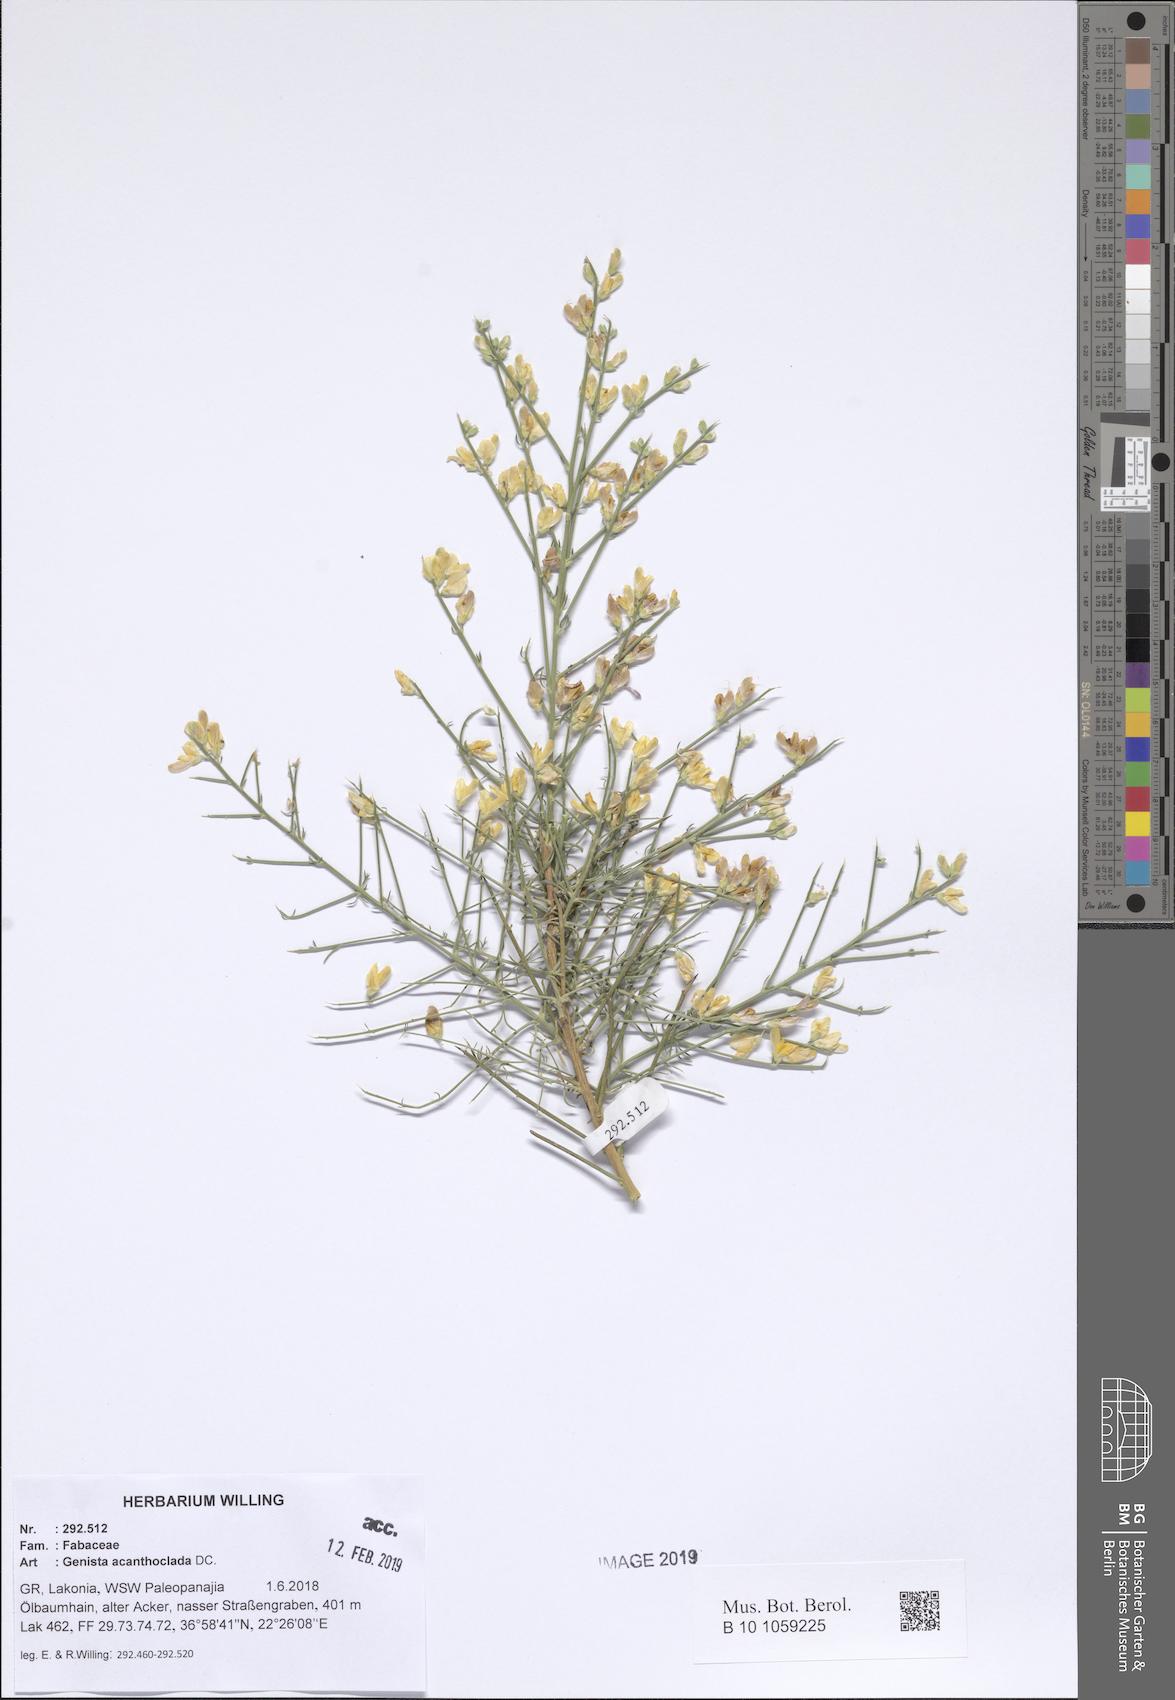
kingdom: Plantae
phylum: Tracheophyta
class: Magnoliopsida
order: Fabales
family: Fabaceae
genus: Genista
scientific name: Genista acanthoclada
